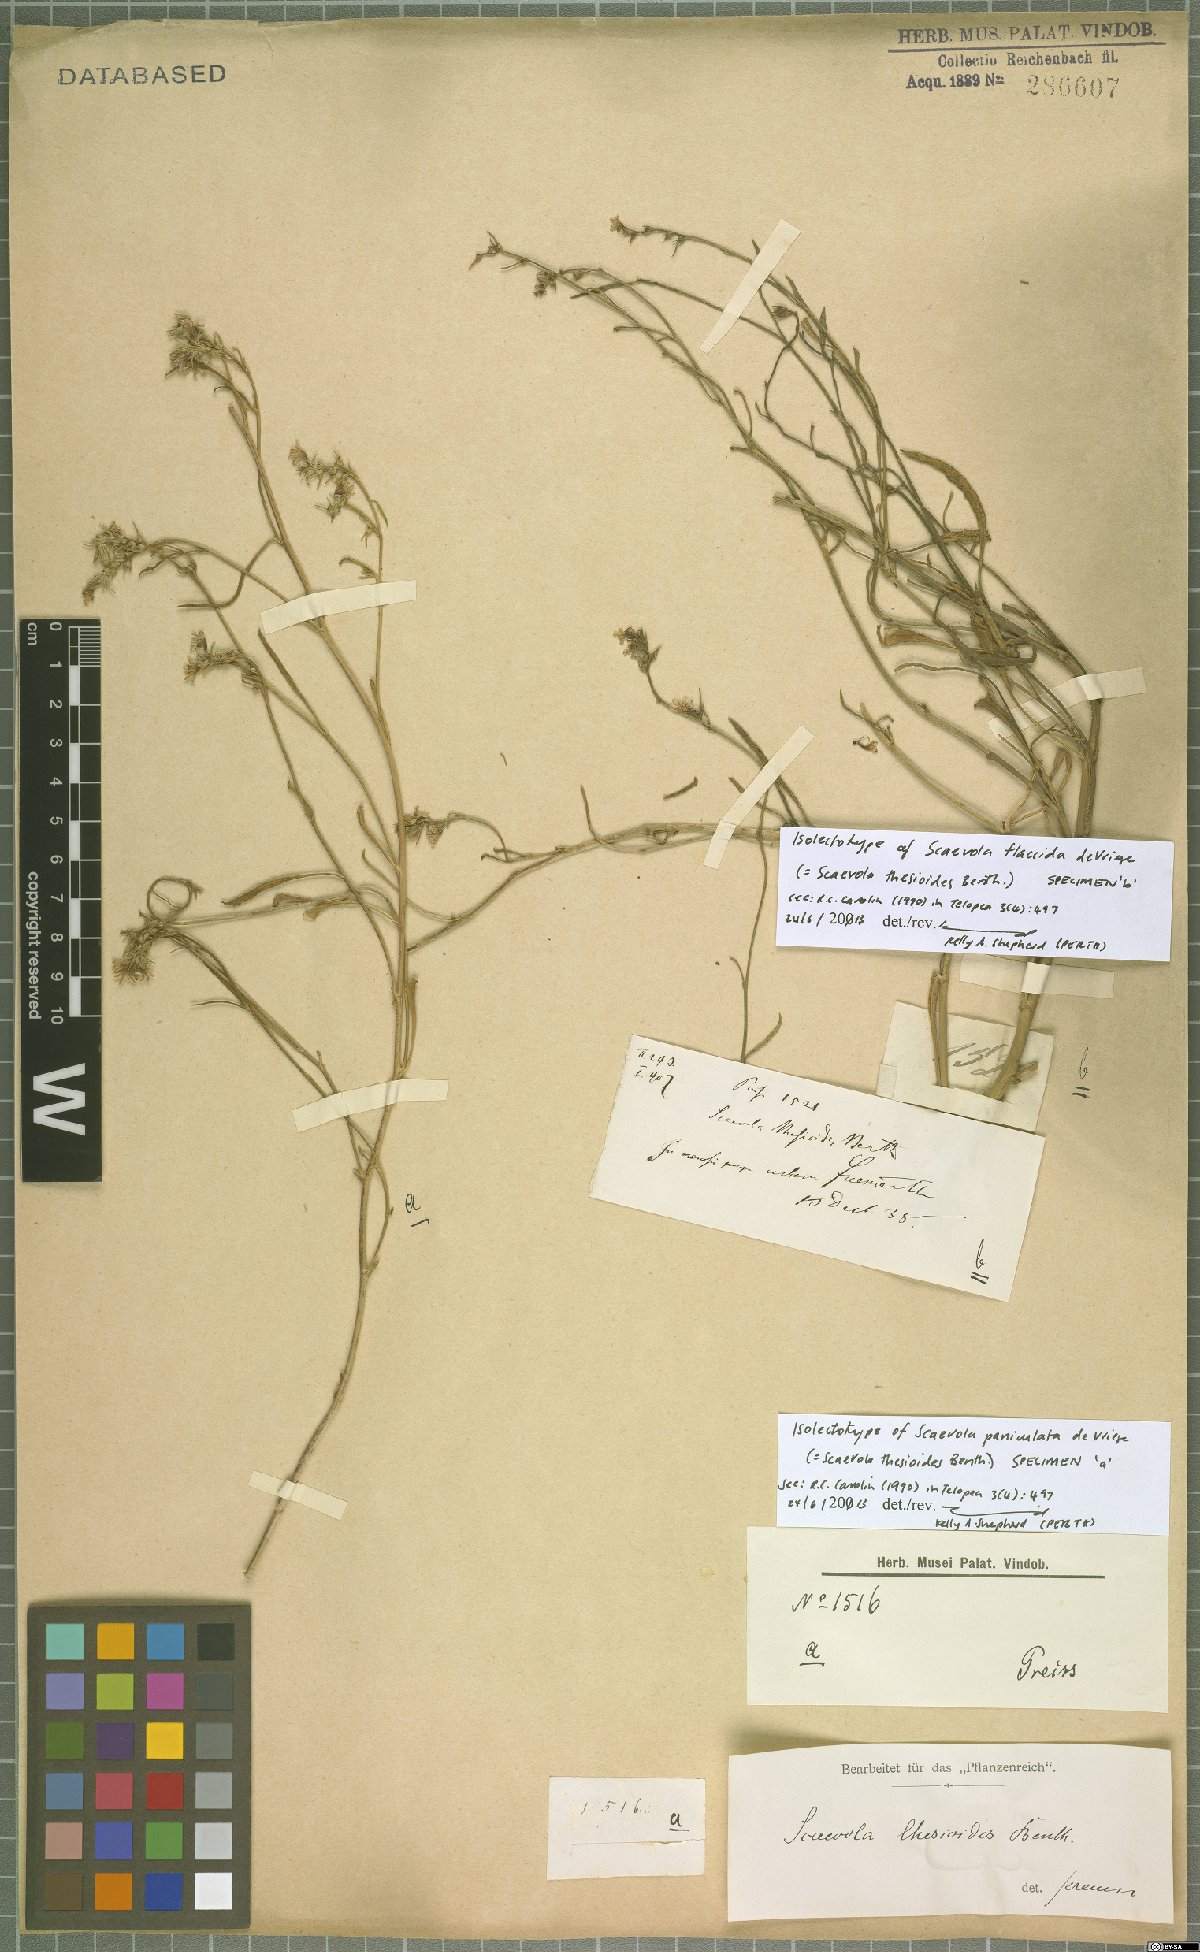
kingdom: Plantae
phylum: Tracheophyta
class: Magnoliopsida
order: Asterales
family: Goodeniaceae
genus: Scaevola
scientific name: Scaevola thesioides
